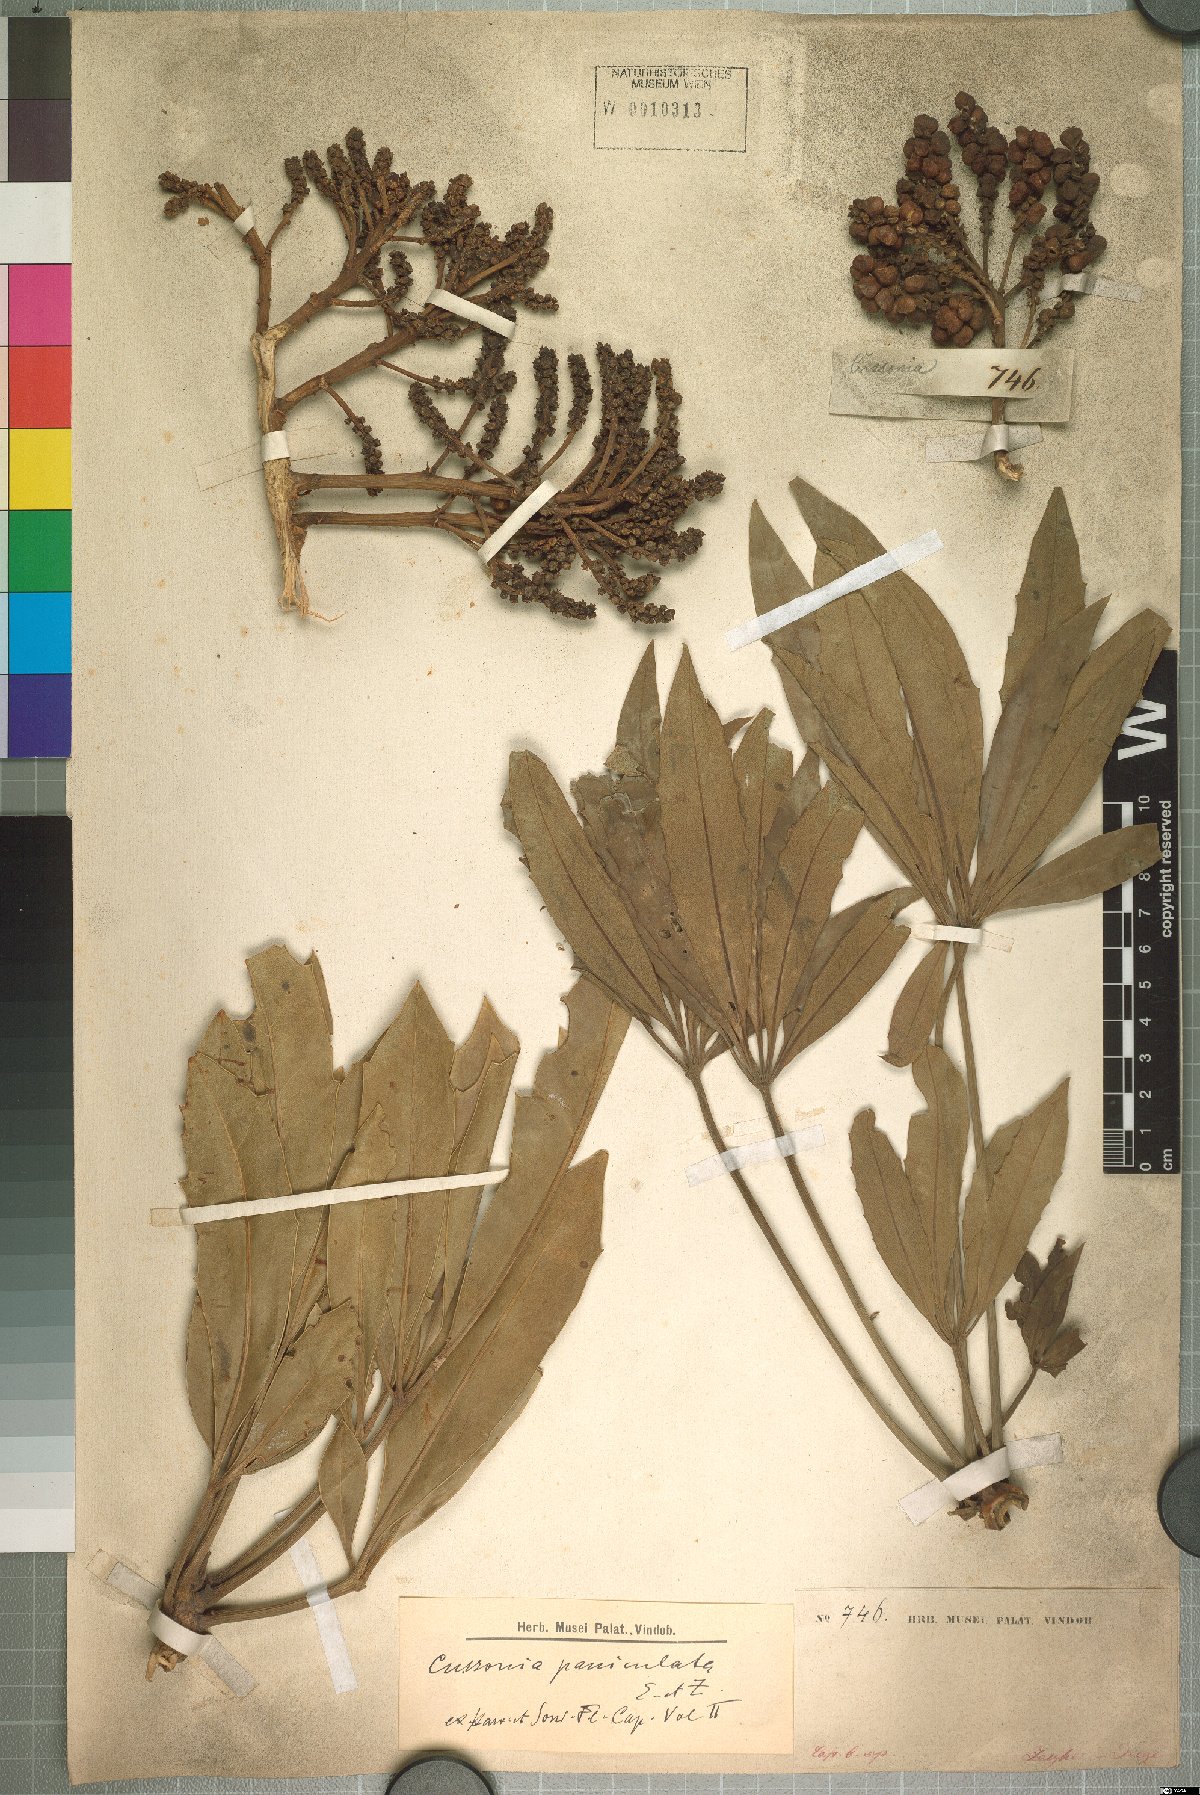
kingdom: Plantae
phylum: Tracheophyta
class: Magnoliopsida
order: Apiales
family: Araliaceae
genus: Cussonia
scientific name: Cussonia paniculata
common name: Cabbagetree
